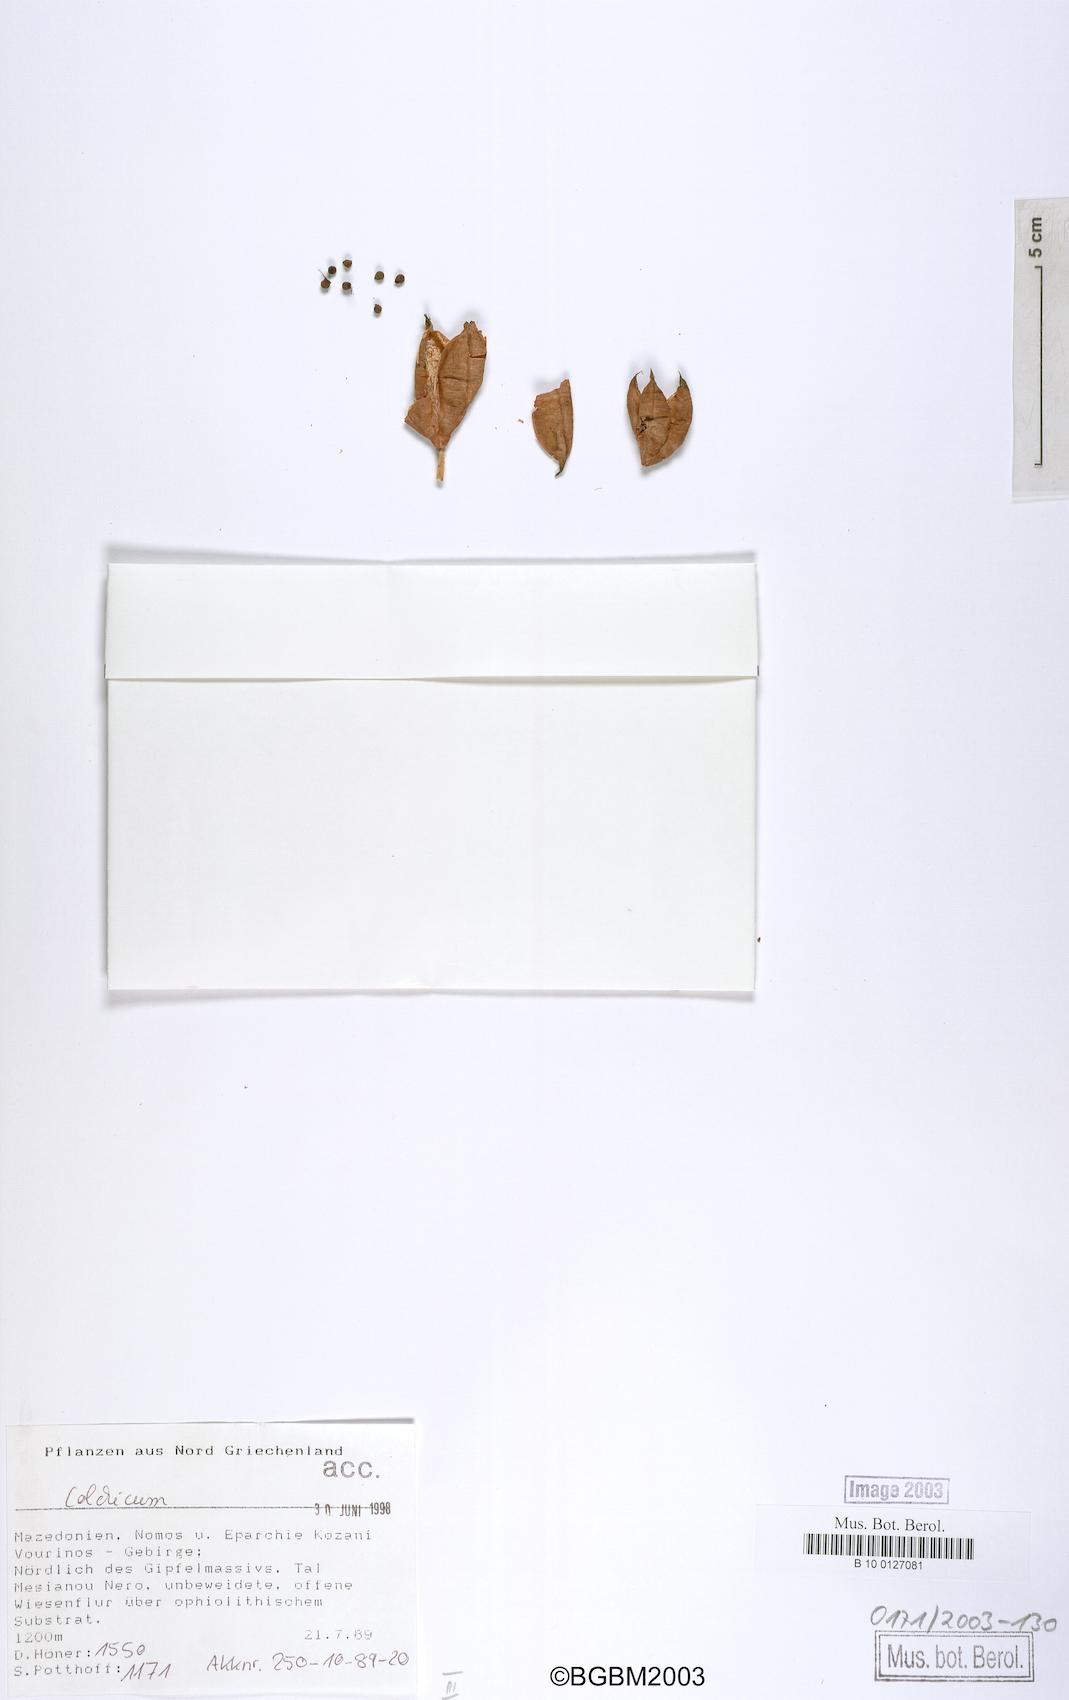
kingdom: Plantae
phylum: Tracheophyta
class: Liliopsida
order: Liliales
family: Colchicaceae
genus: Colchicum
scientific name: Colchicum autumnale
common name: Autumn crocus
